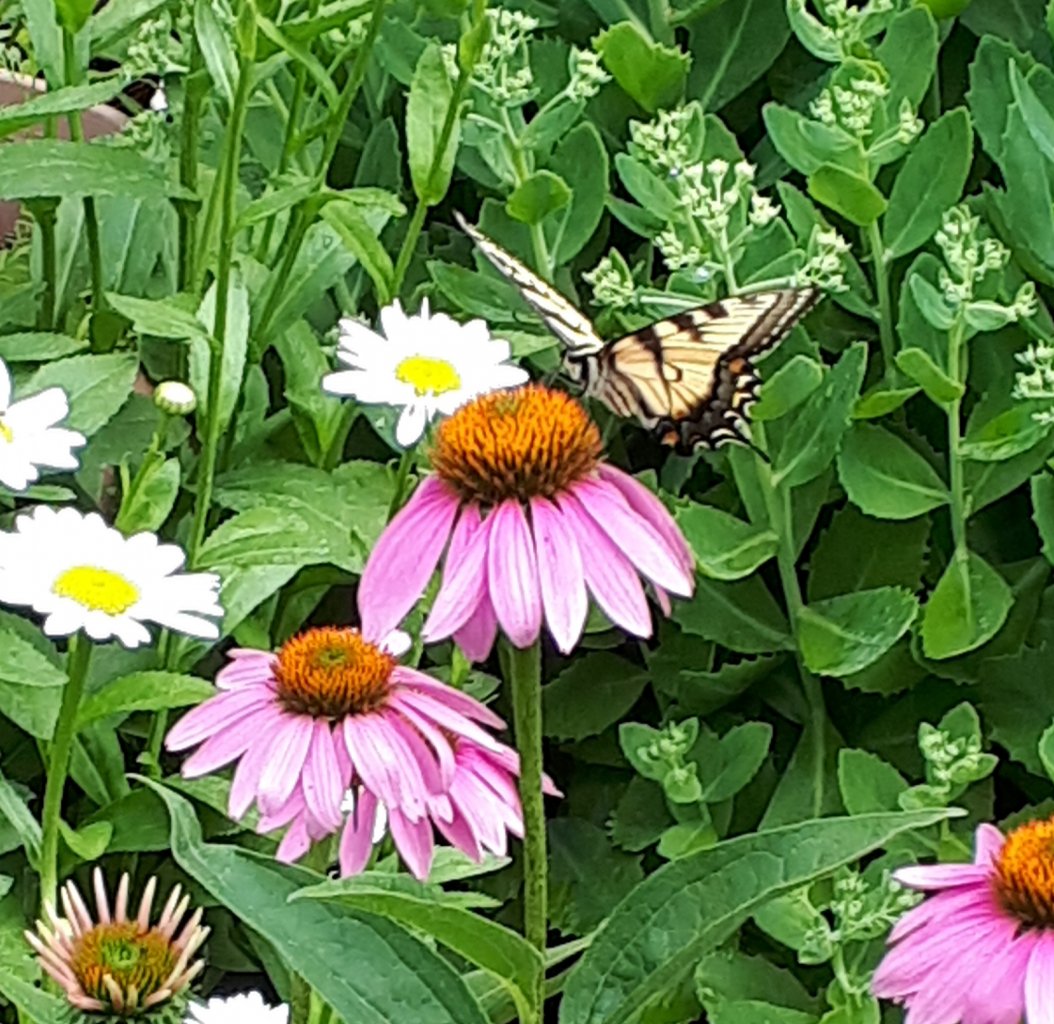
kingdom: Animalia
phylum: Arthropoda
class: Insecta
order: Lepidoptera
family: Papilionidae
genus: Papilio
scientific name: Papilio
